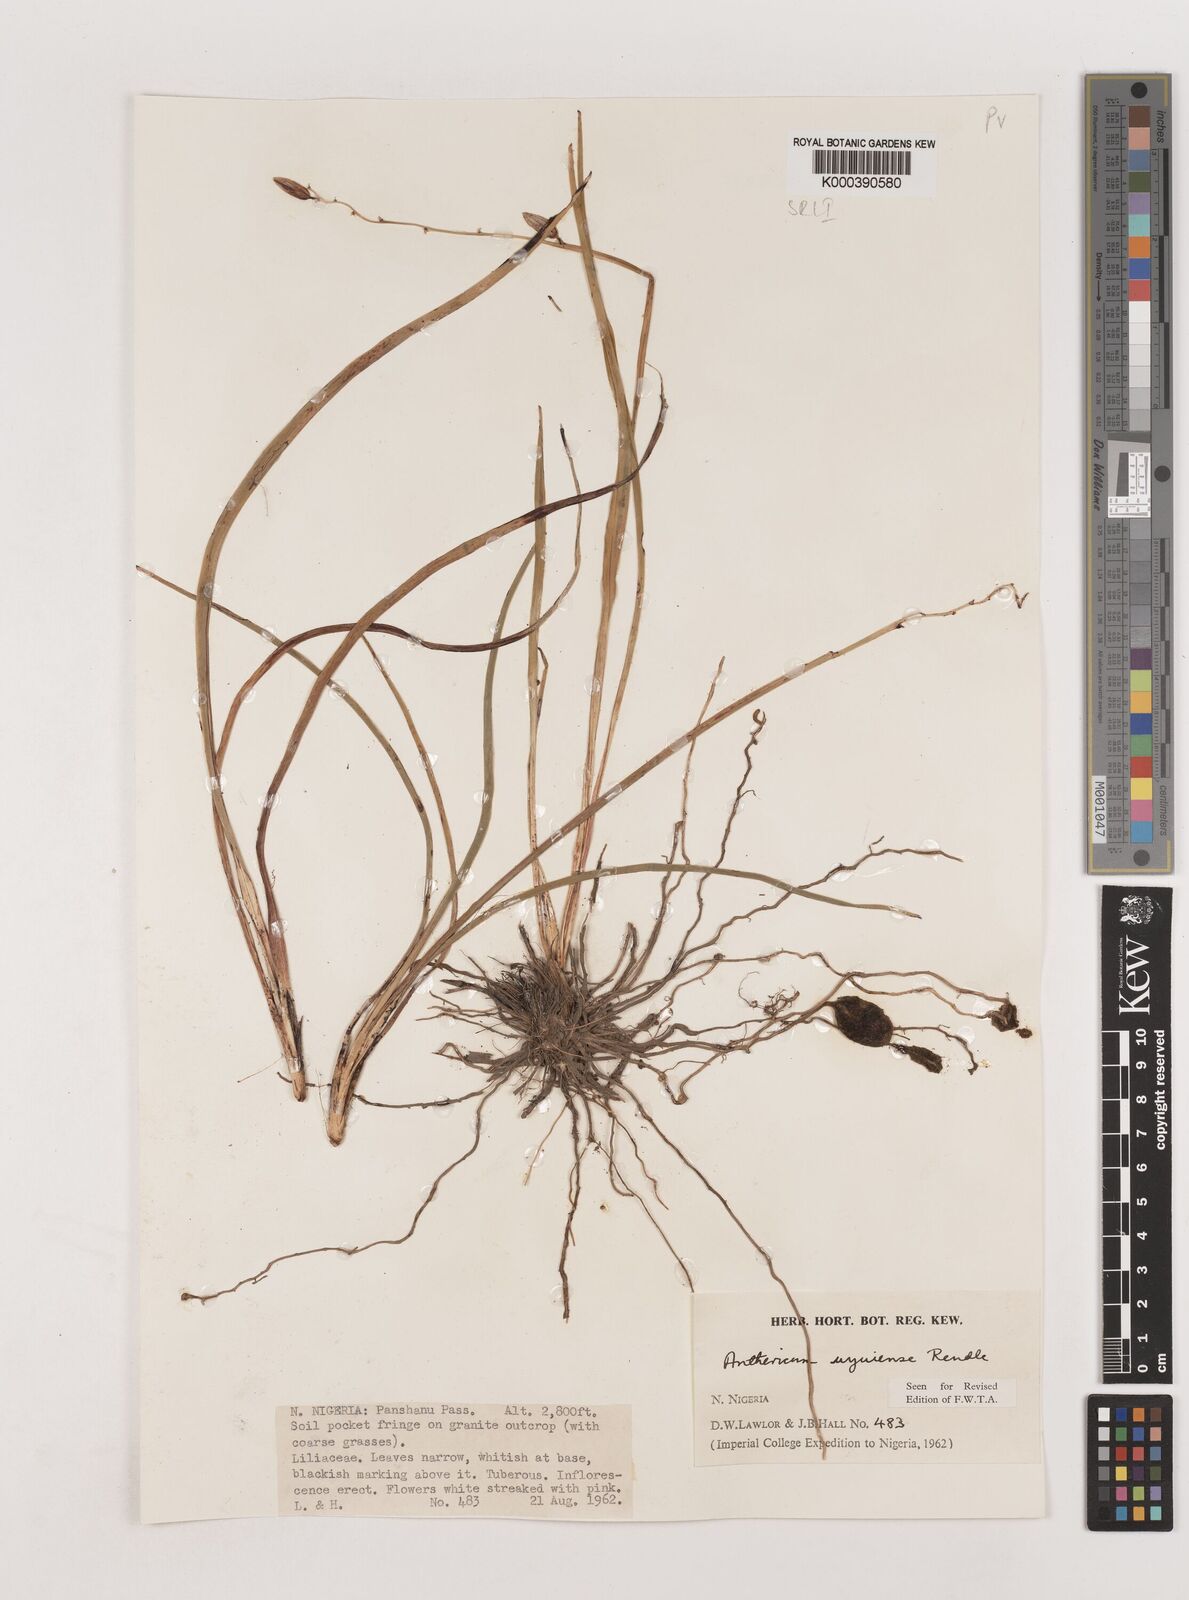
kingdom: Plantae
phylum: Tracheophyta
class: Liliopsida
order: Asparagales
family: Asparagaceae
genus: Chlorophytum
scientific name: Chlorophytum cameronii
